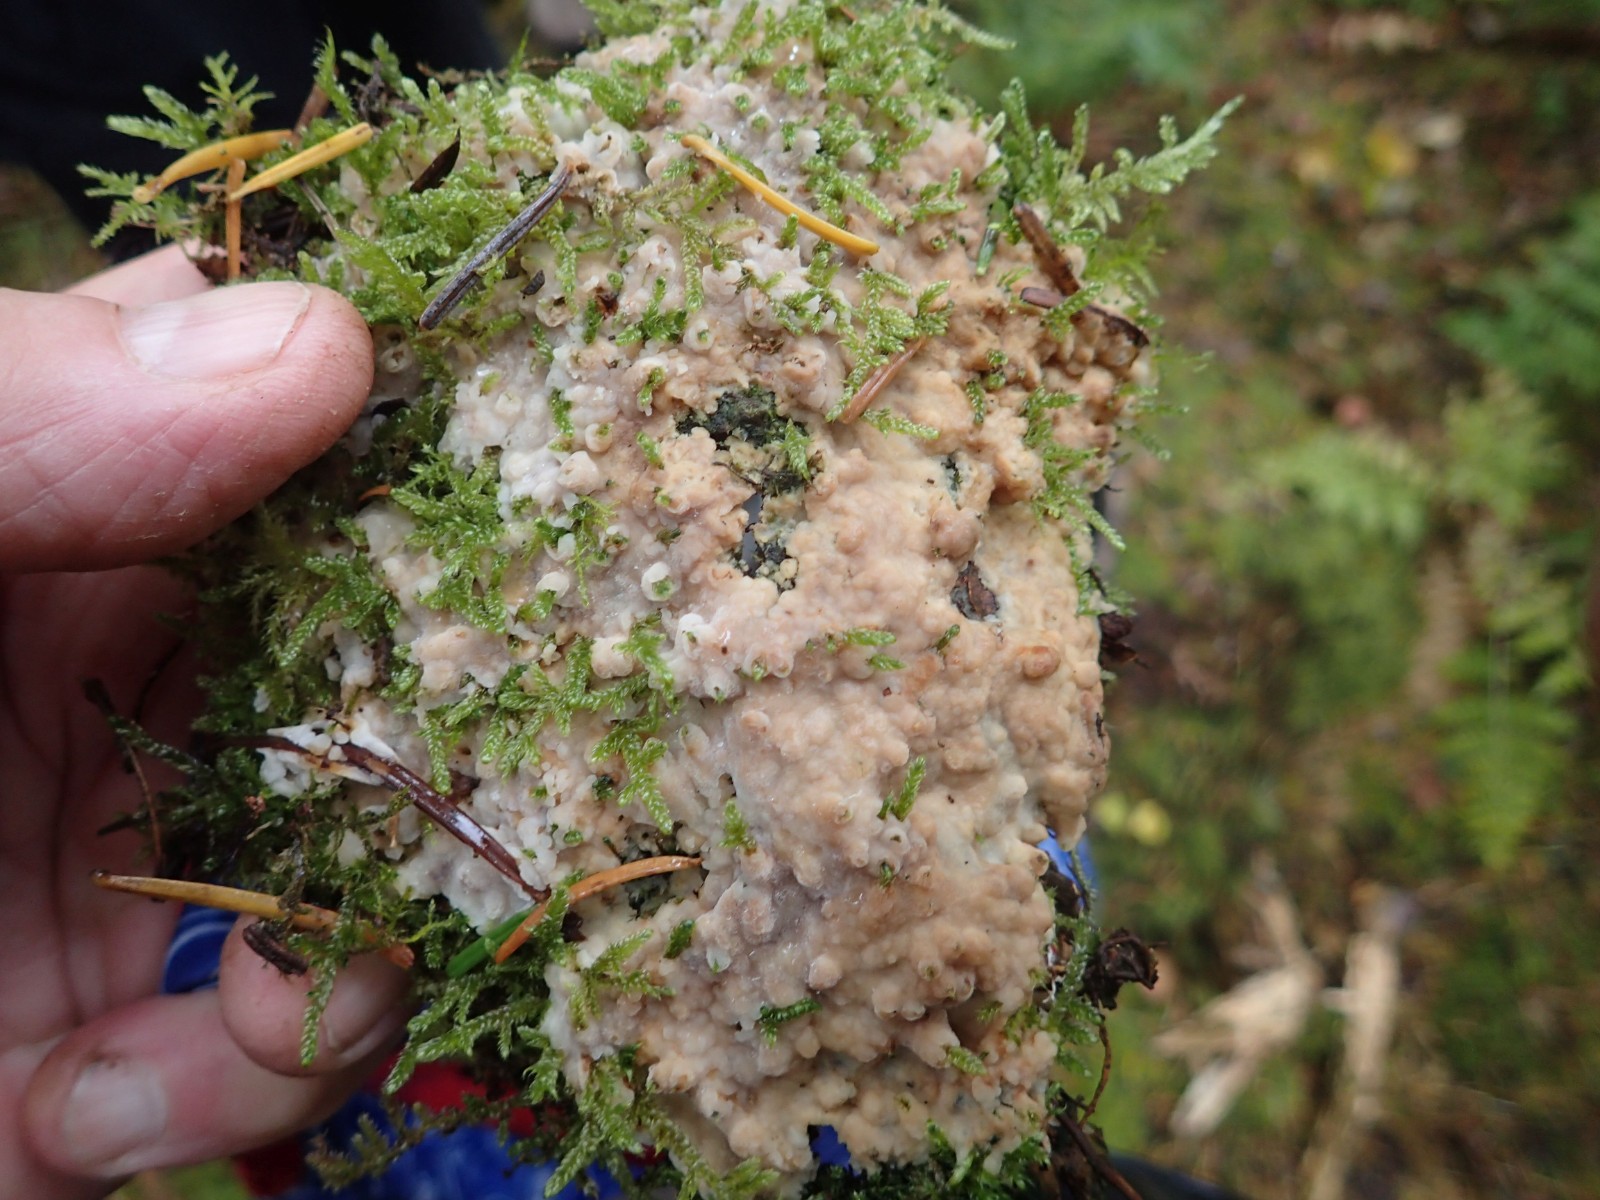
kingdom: Fungi
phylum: Basidiomycota
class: Agaricomycetes
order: Polyporales
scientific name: Polyporales
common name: poresvampordenen
